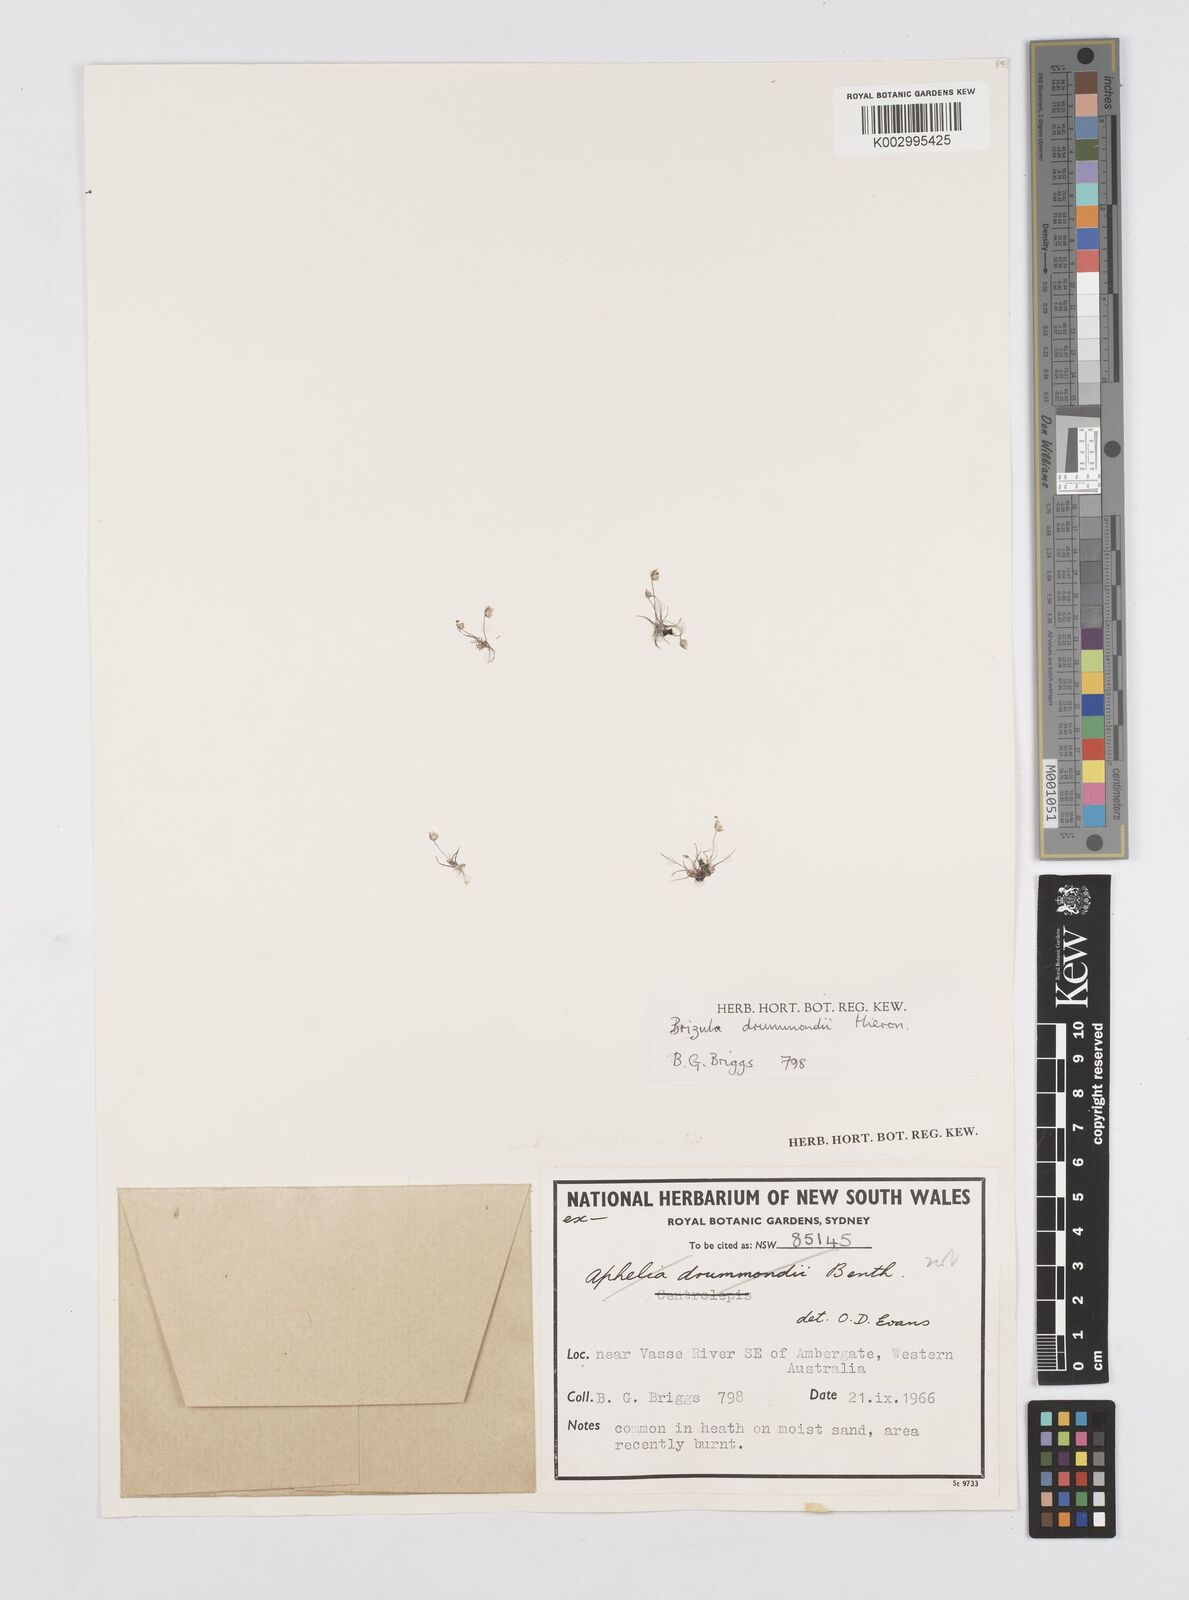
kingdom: Plantae
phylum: Tracheophyta
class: Liliopsida
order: Poales
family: Restionaceae
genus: Aphelia
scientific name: Aphelia drummondii
